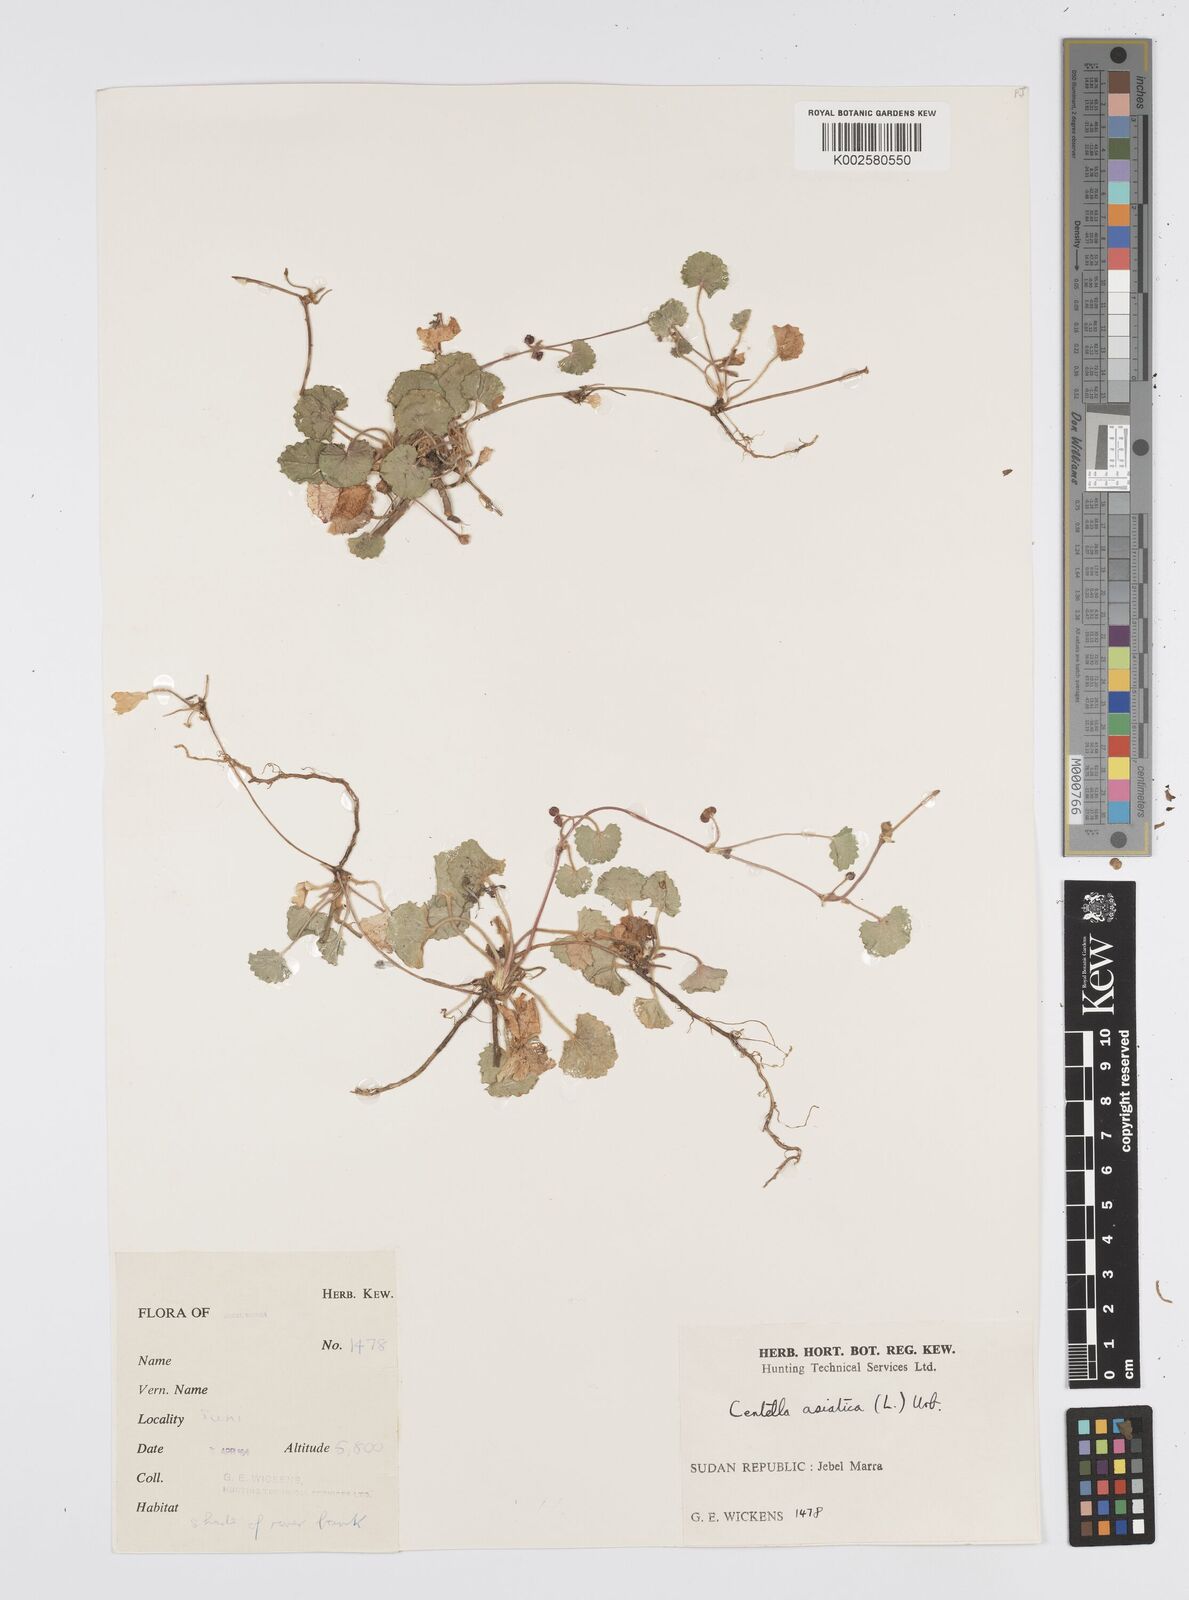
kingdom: Plantae
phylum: Tracheophyta
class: Magnoliopsida
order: Apiales
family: Apiaceae
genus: Centella
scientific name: Centella asiatica
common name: Spadeleaf
